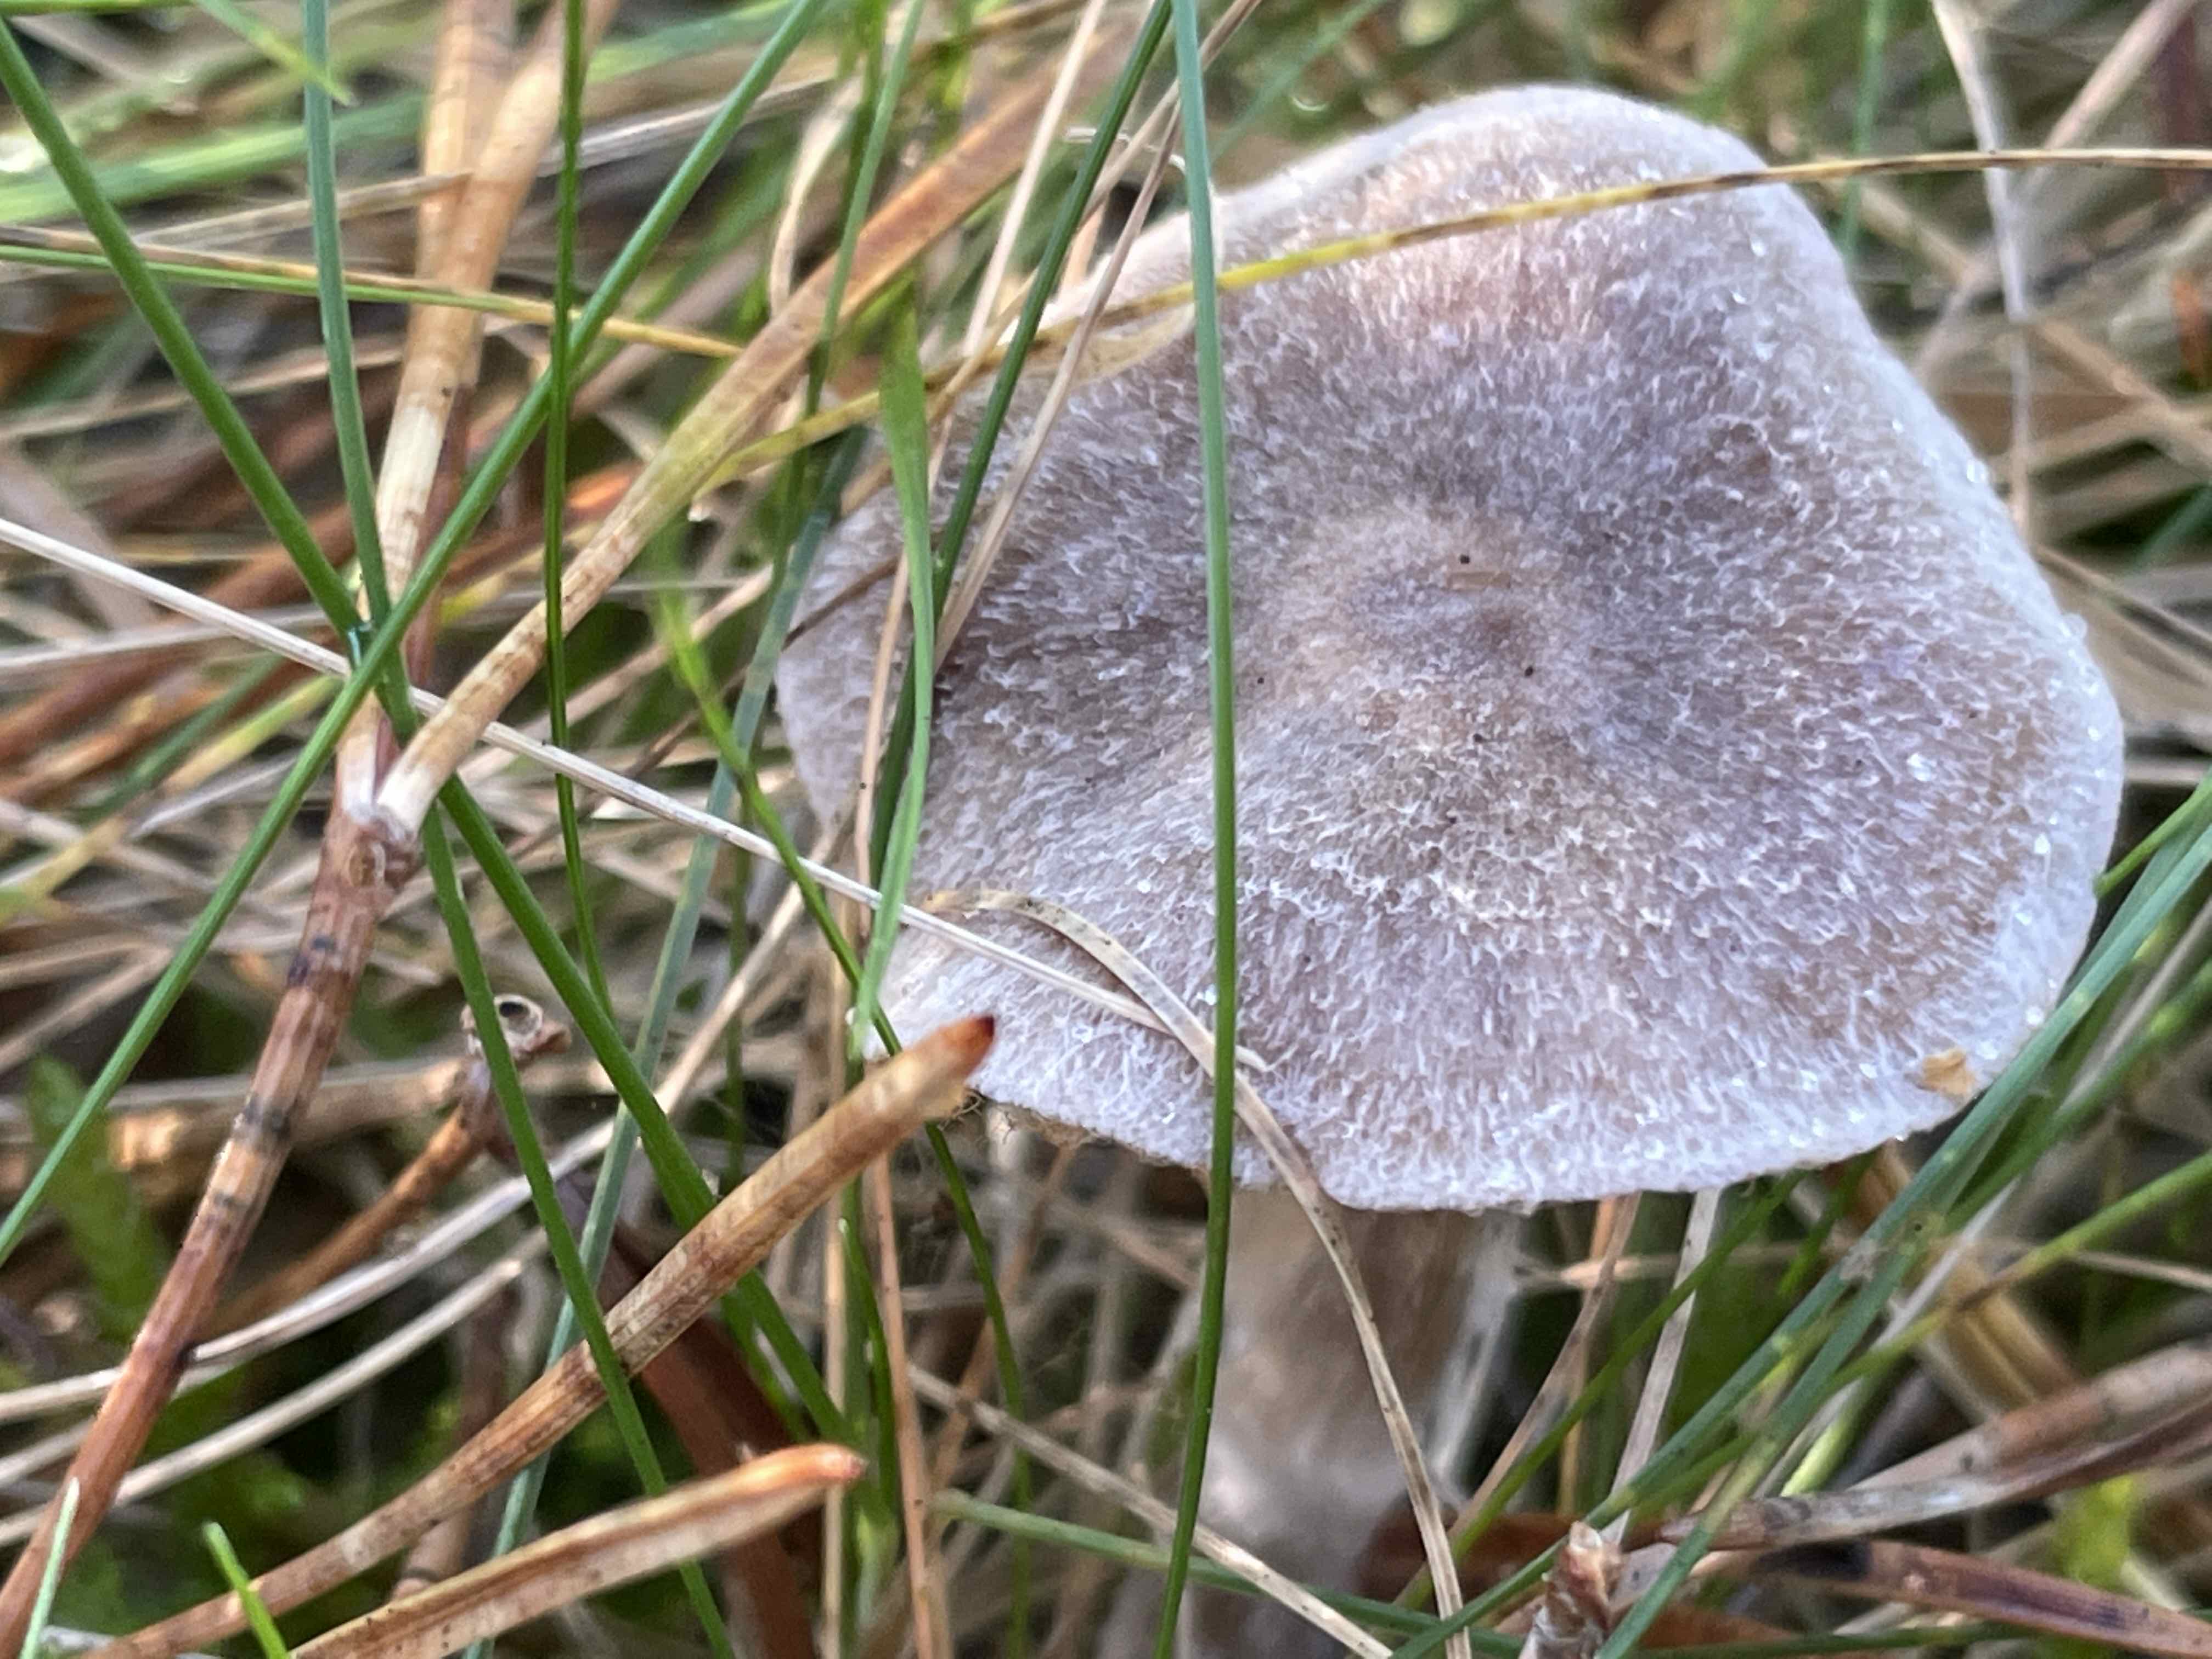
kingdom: Fungi
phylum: Basidiomycota
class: Agaricomycetes
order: Agaricales
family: Cortinariaceae
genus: Cortinarius
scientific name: Cortinarius hemitrichus
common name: hvidfnugget slørhat
